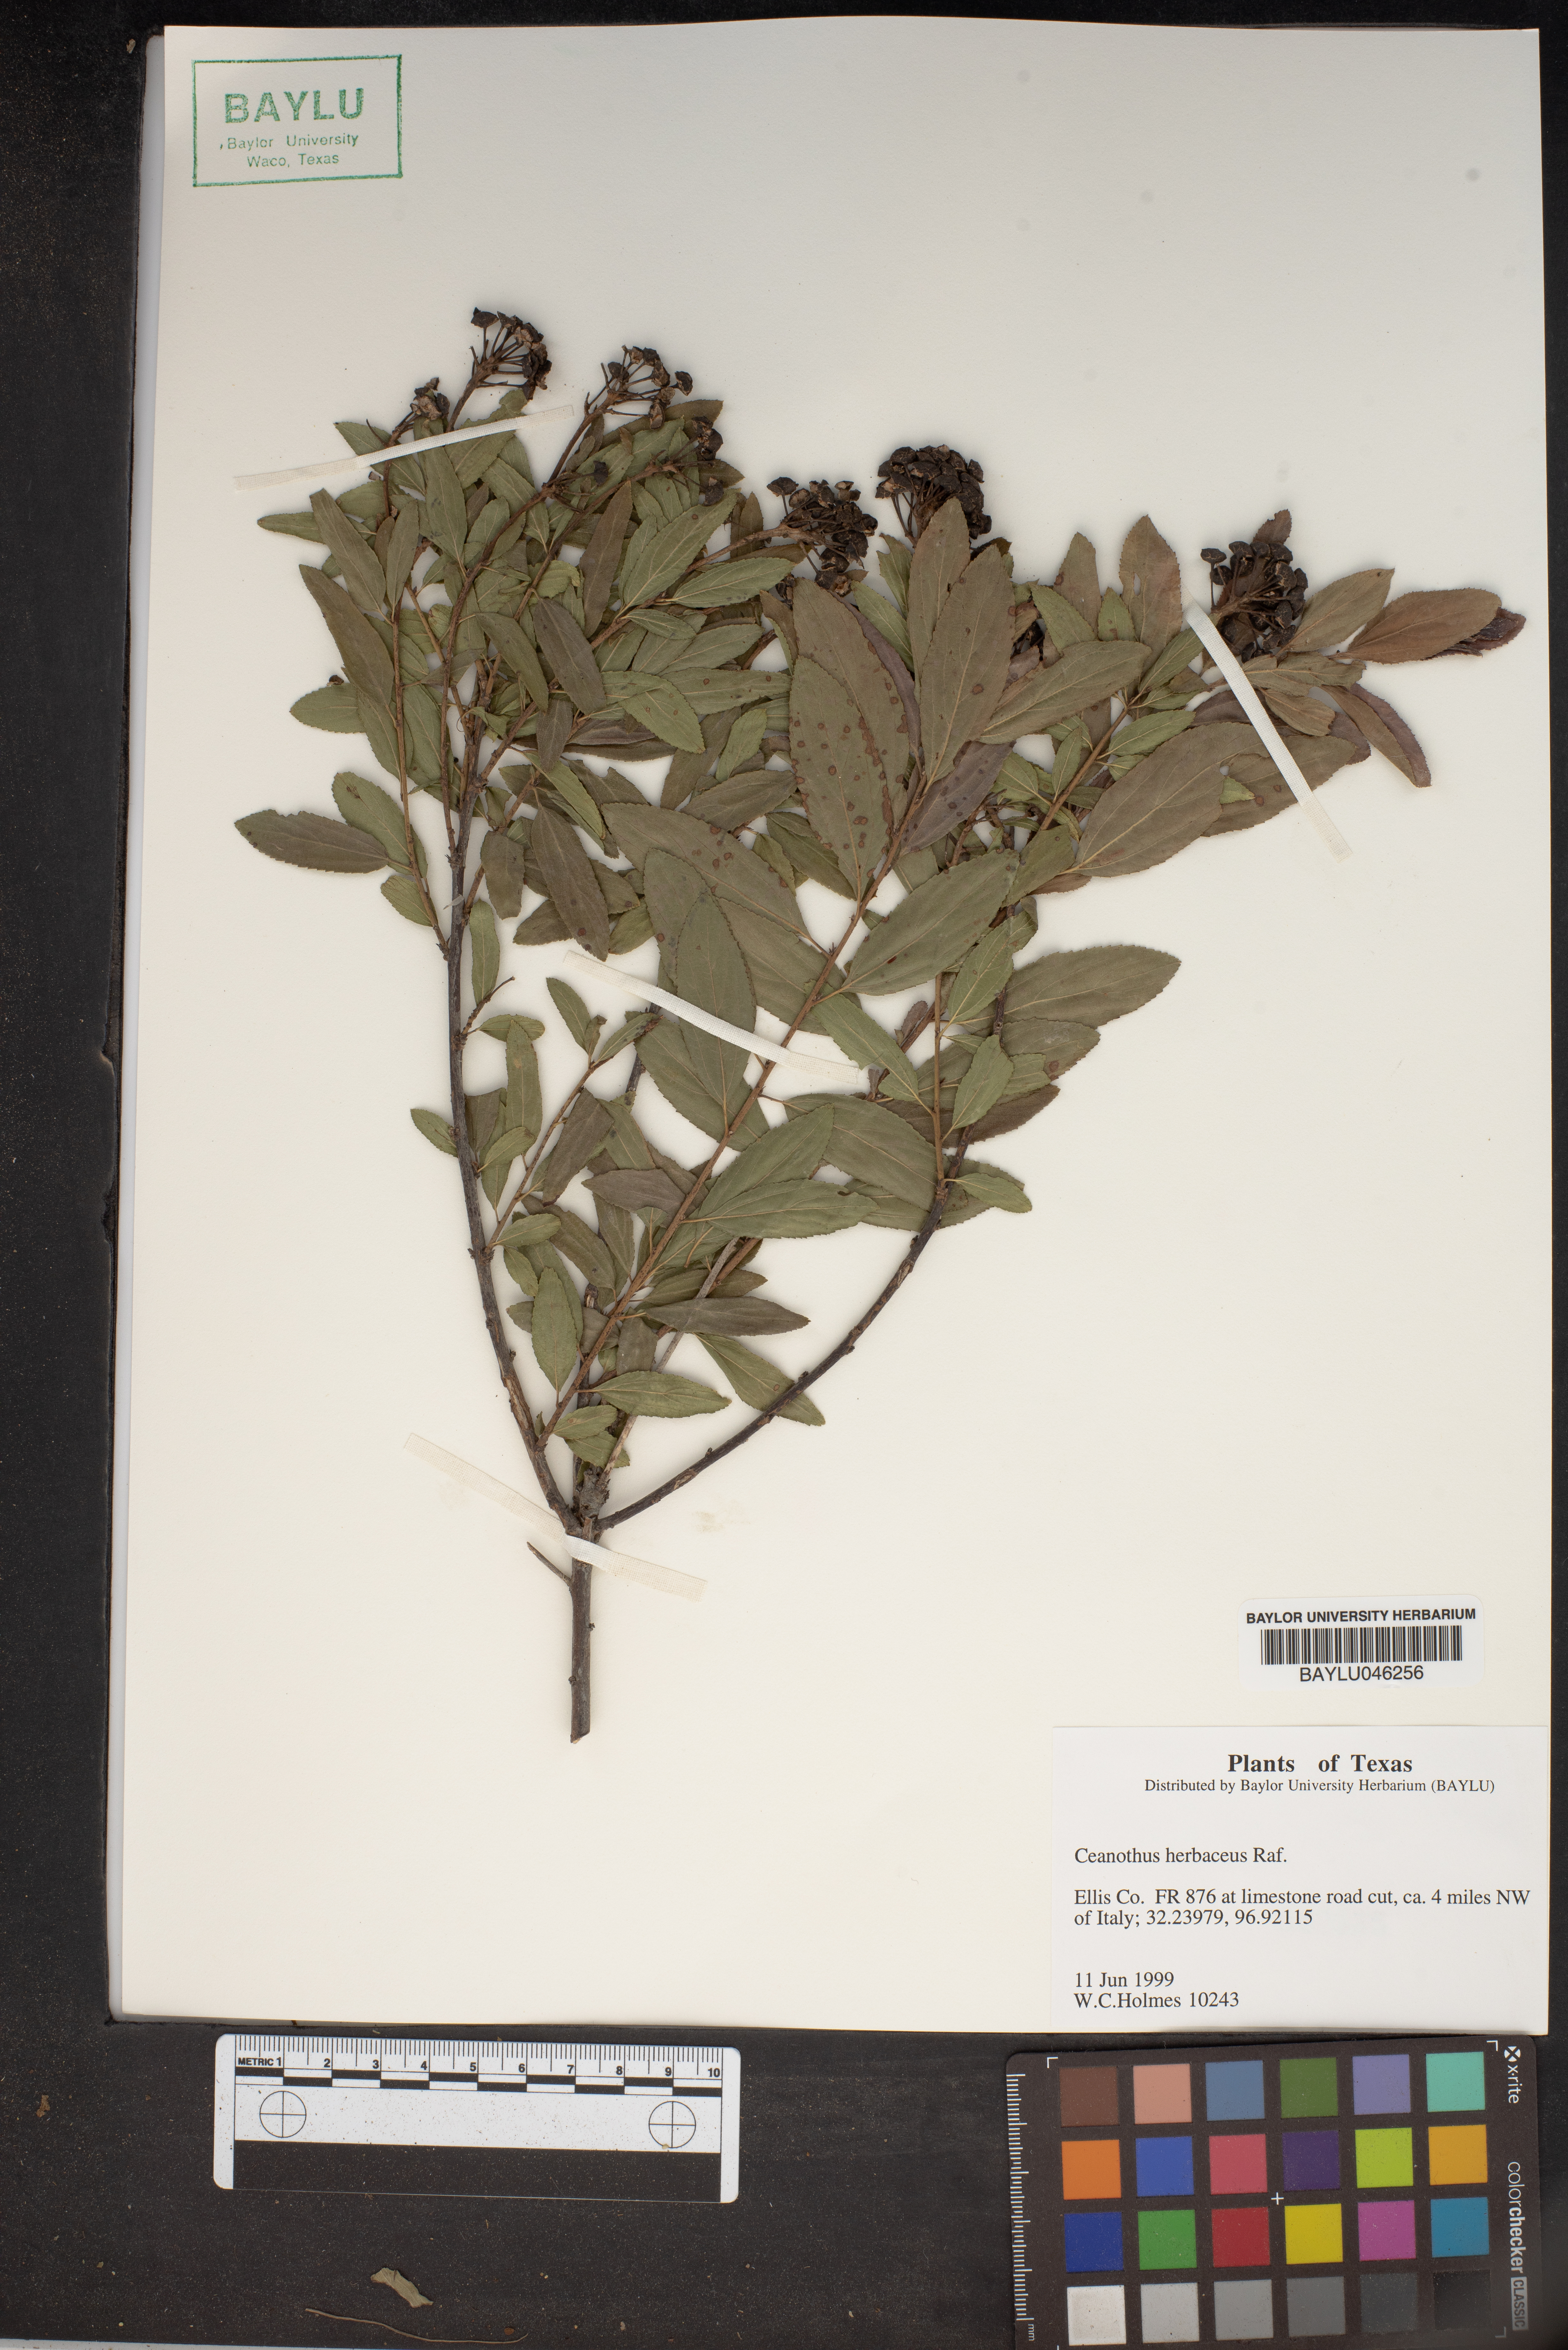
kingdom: Plantae
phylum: Tracheophyta
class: Magnoliopsida
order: Rosales
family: Rhamnaceae
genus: Ceanothus
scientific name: Ceanothus herbaceus
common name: Inland ceanothus
